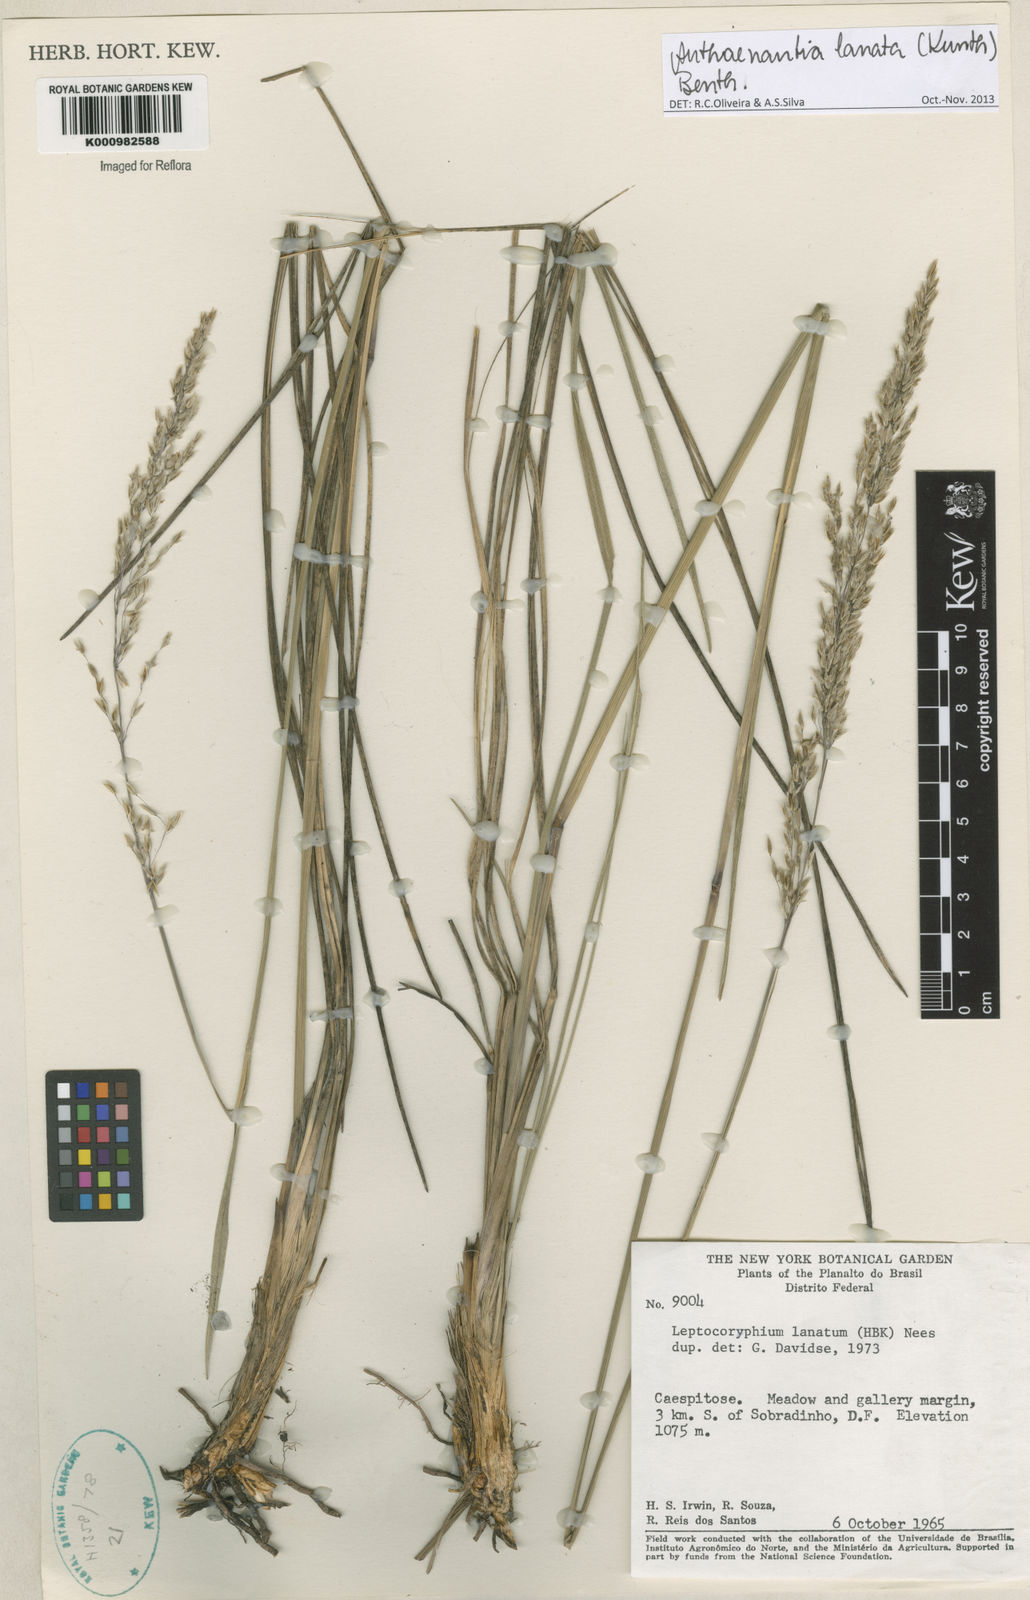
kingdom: Plantae
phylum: Tracheophyta
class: Liliopsida
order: Poales
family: Poaceae
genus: Anthenantia
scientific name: Anthenantia lanata
